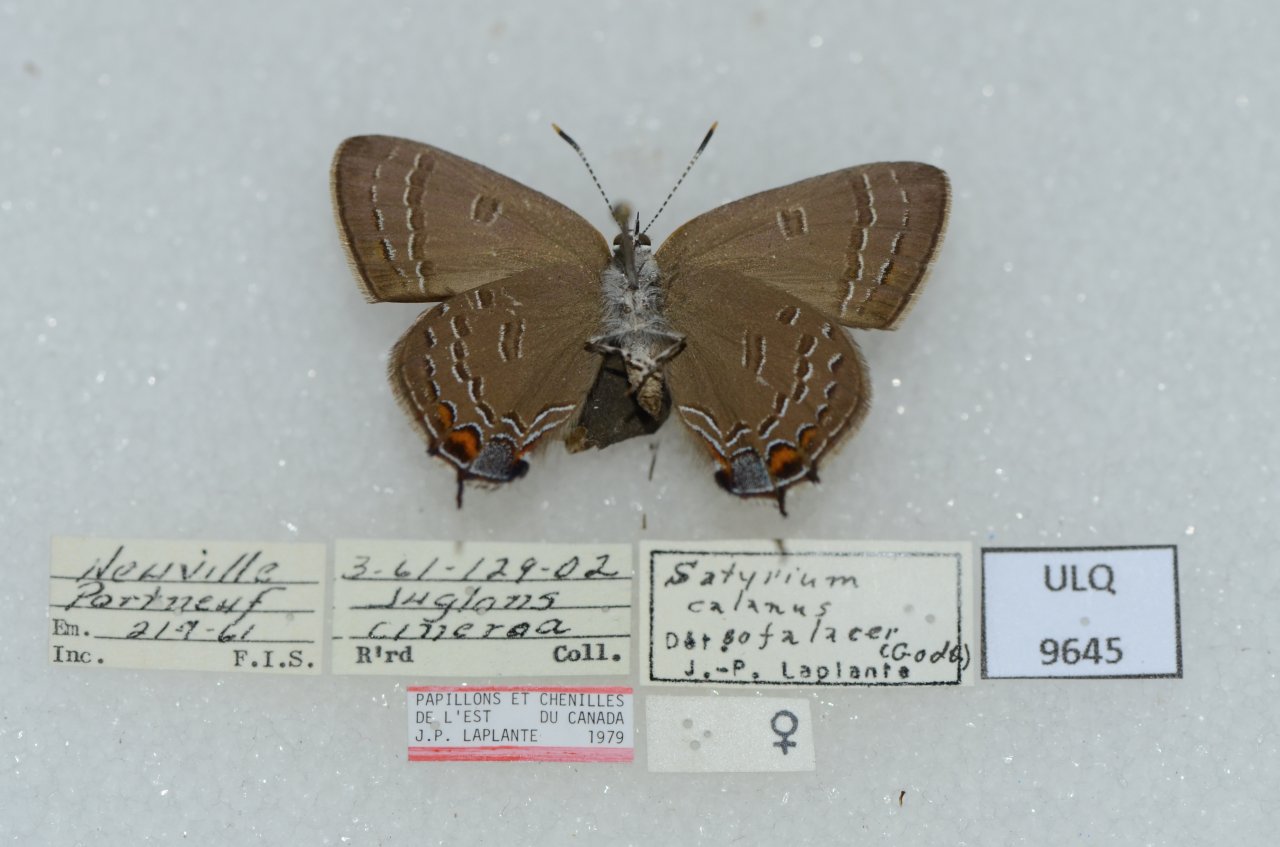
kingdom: Animalia
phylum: Arthropoda
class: Insecta
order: Lepidoptera
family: Lycaenidae
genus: Satyrium
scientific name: Satyrium calanus
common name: Banded Hairstreak
